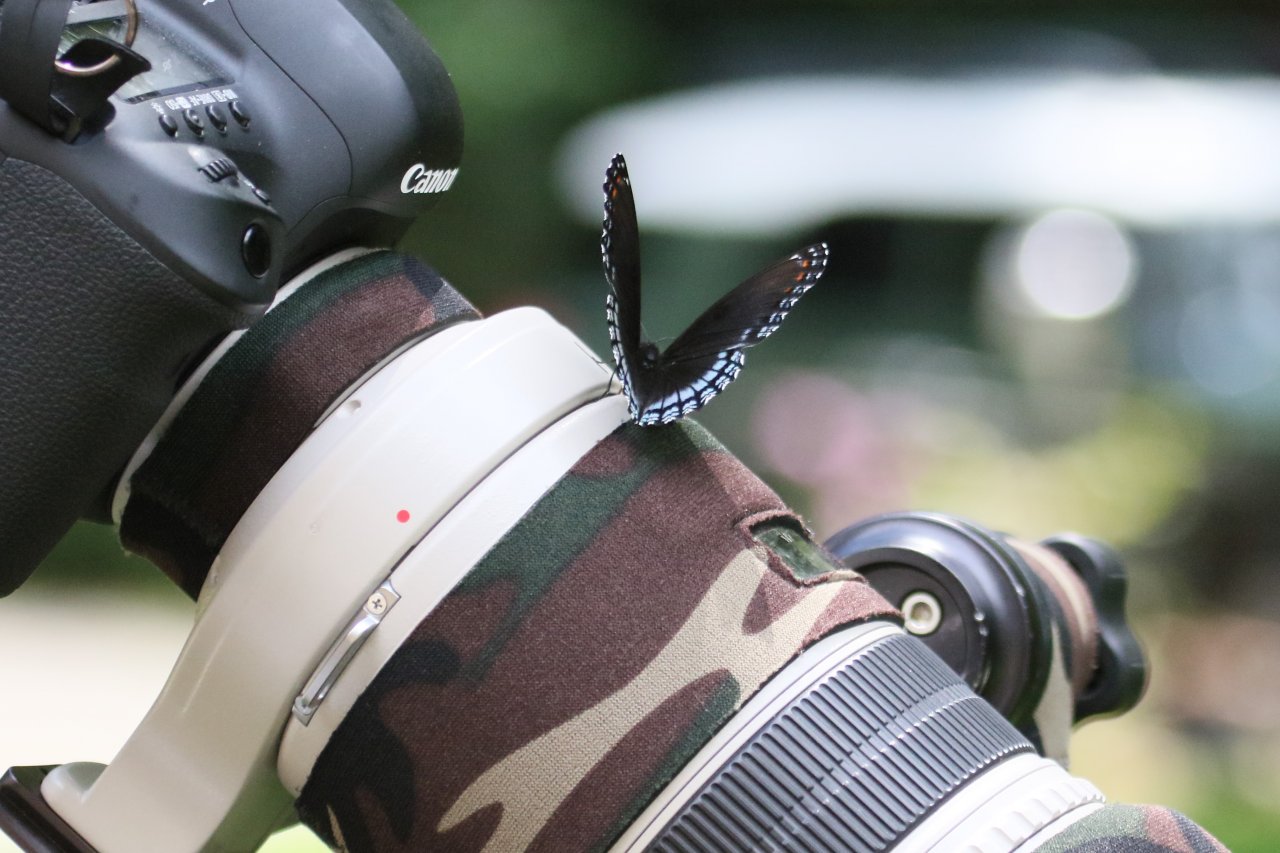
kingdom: Animalia
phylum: Arthropoda
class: Insecta
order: Lepidoptera
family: Nymphalidae
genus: Limenitis
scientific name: Limenitis astyanax
